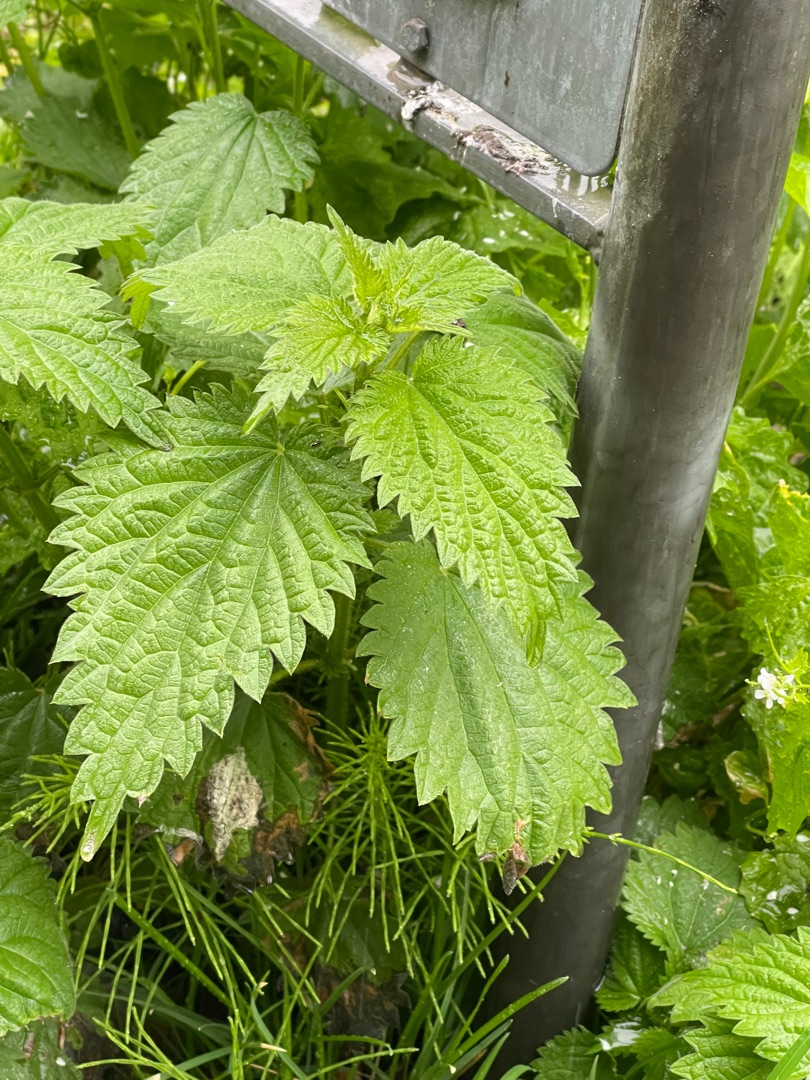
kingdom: Plantae
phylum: Tracheophyta
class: Magnoliopsida
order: Rosales
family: Urticaceae
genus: Urtica
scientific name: Urtica dioica
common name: Stor nælde
